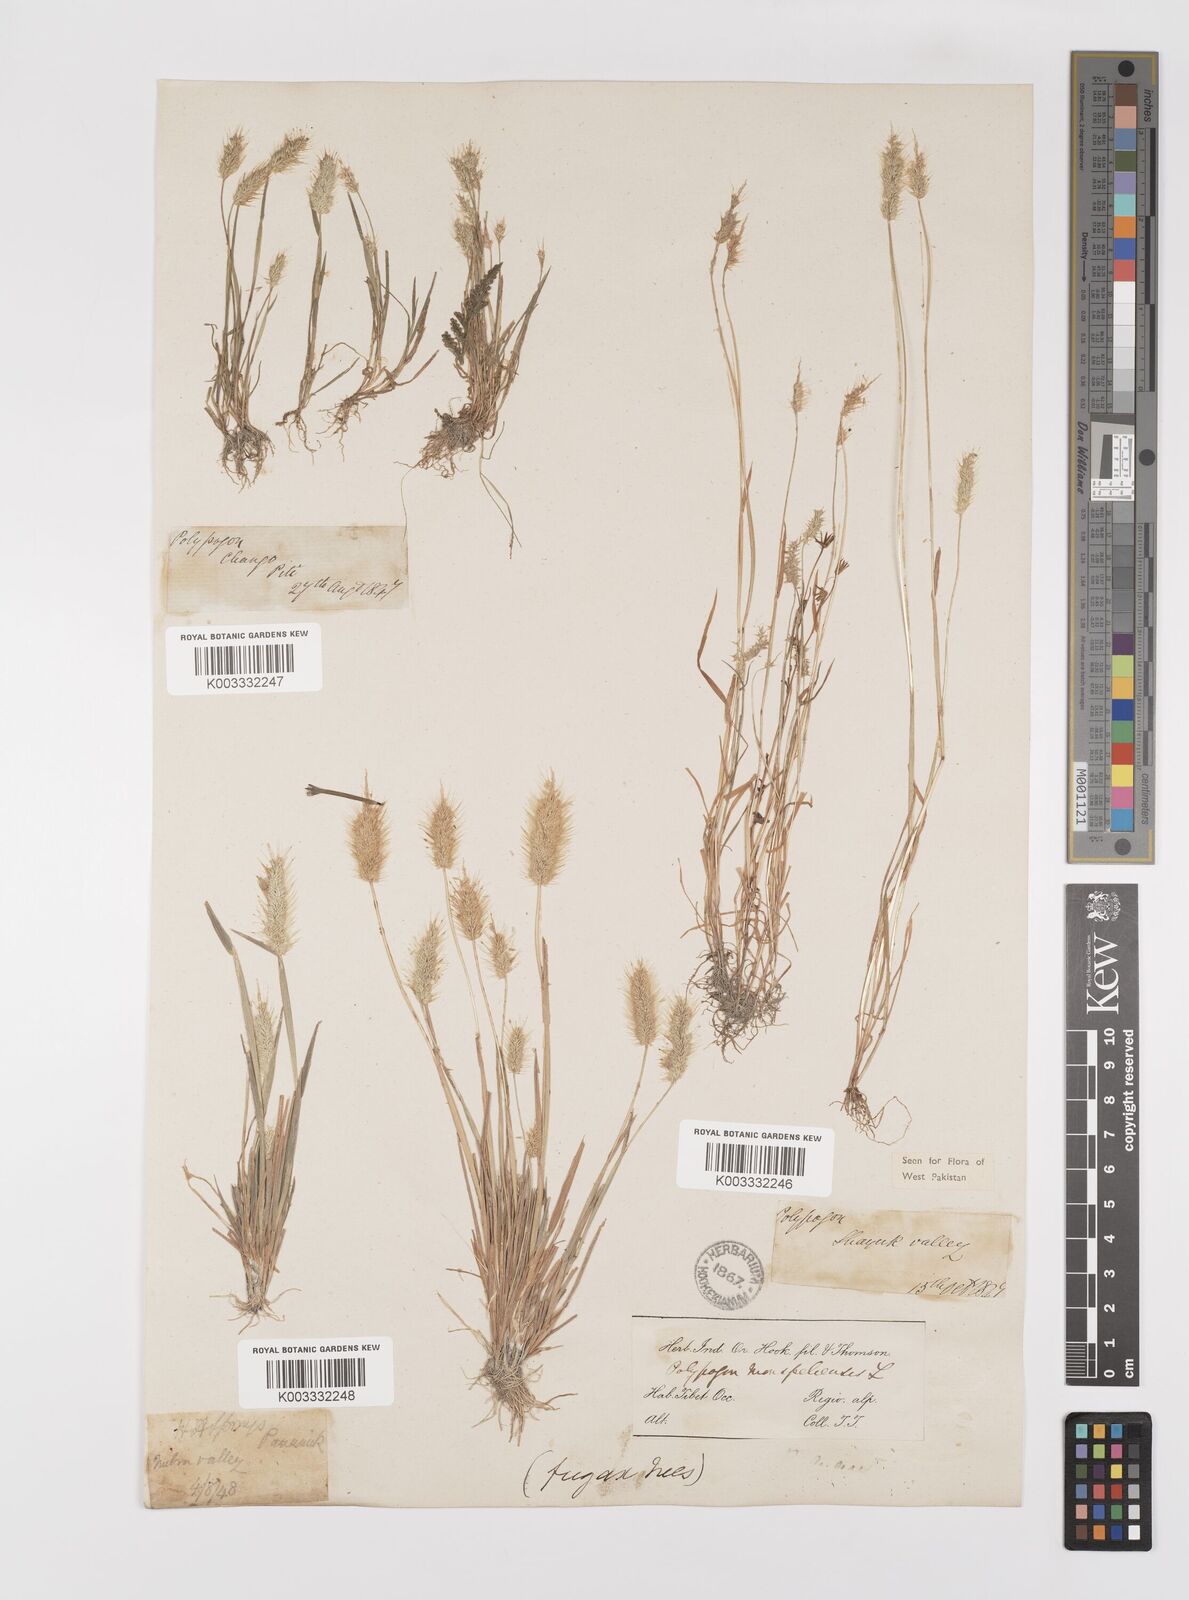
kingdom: Plantae
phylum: Tracheophyta
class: Liliopsida
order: Poales
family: Poaceae
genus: Polypogon
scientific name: Polypogon monspeliensis
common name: Annual rabbitsfoot grass
